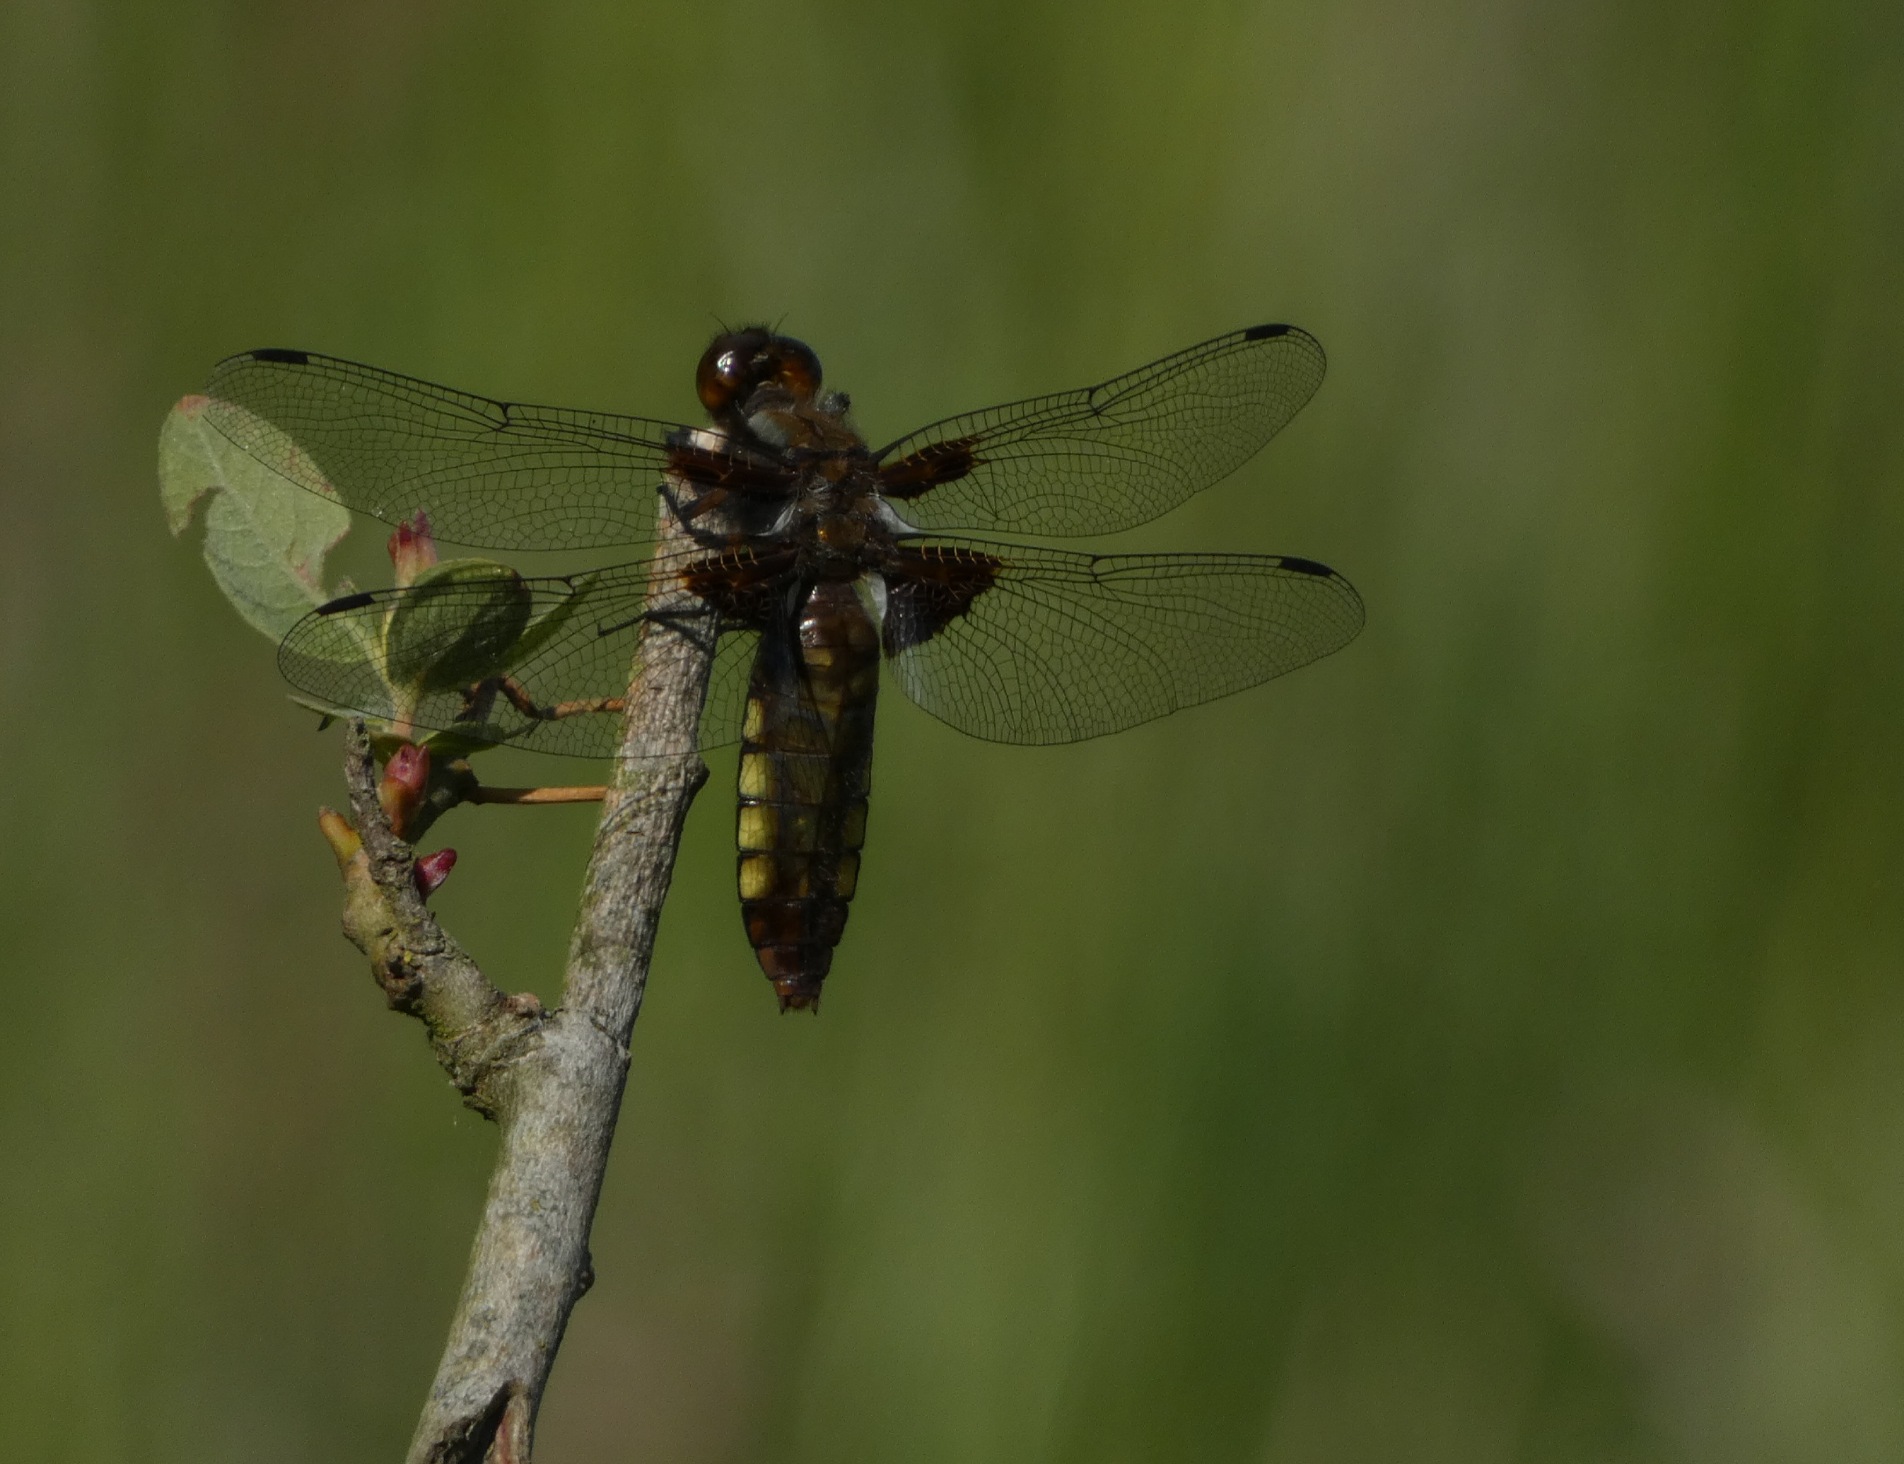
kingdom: Animalia
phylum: Arthropoda
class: Insecta
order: Odonata
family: Libellulidae
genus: Libellula
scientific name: Libellula depressa
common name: Blå libel
